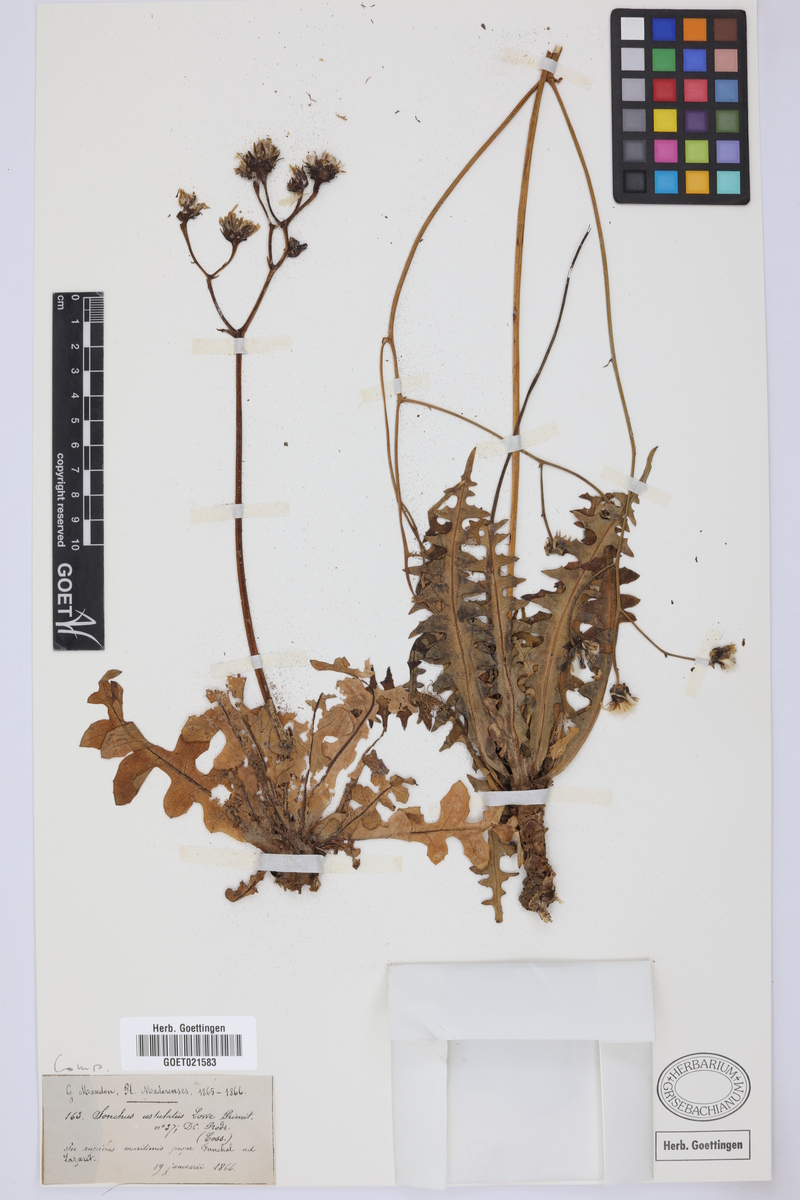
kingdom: Plantae
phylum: Tracheophyta
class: Magnoliopsida
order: Asterales
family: Asteraceae
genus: Sonchus
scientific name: Sonchus ustulatus
